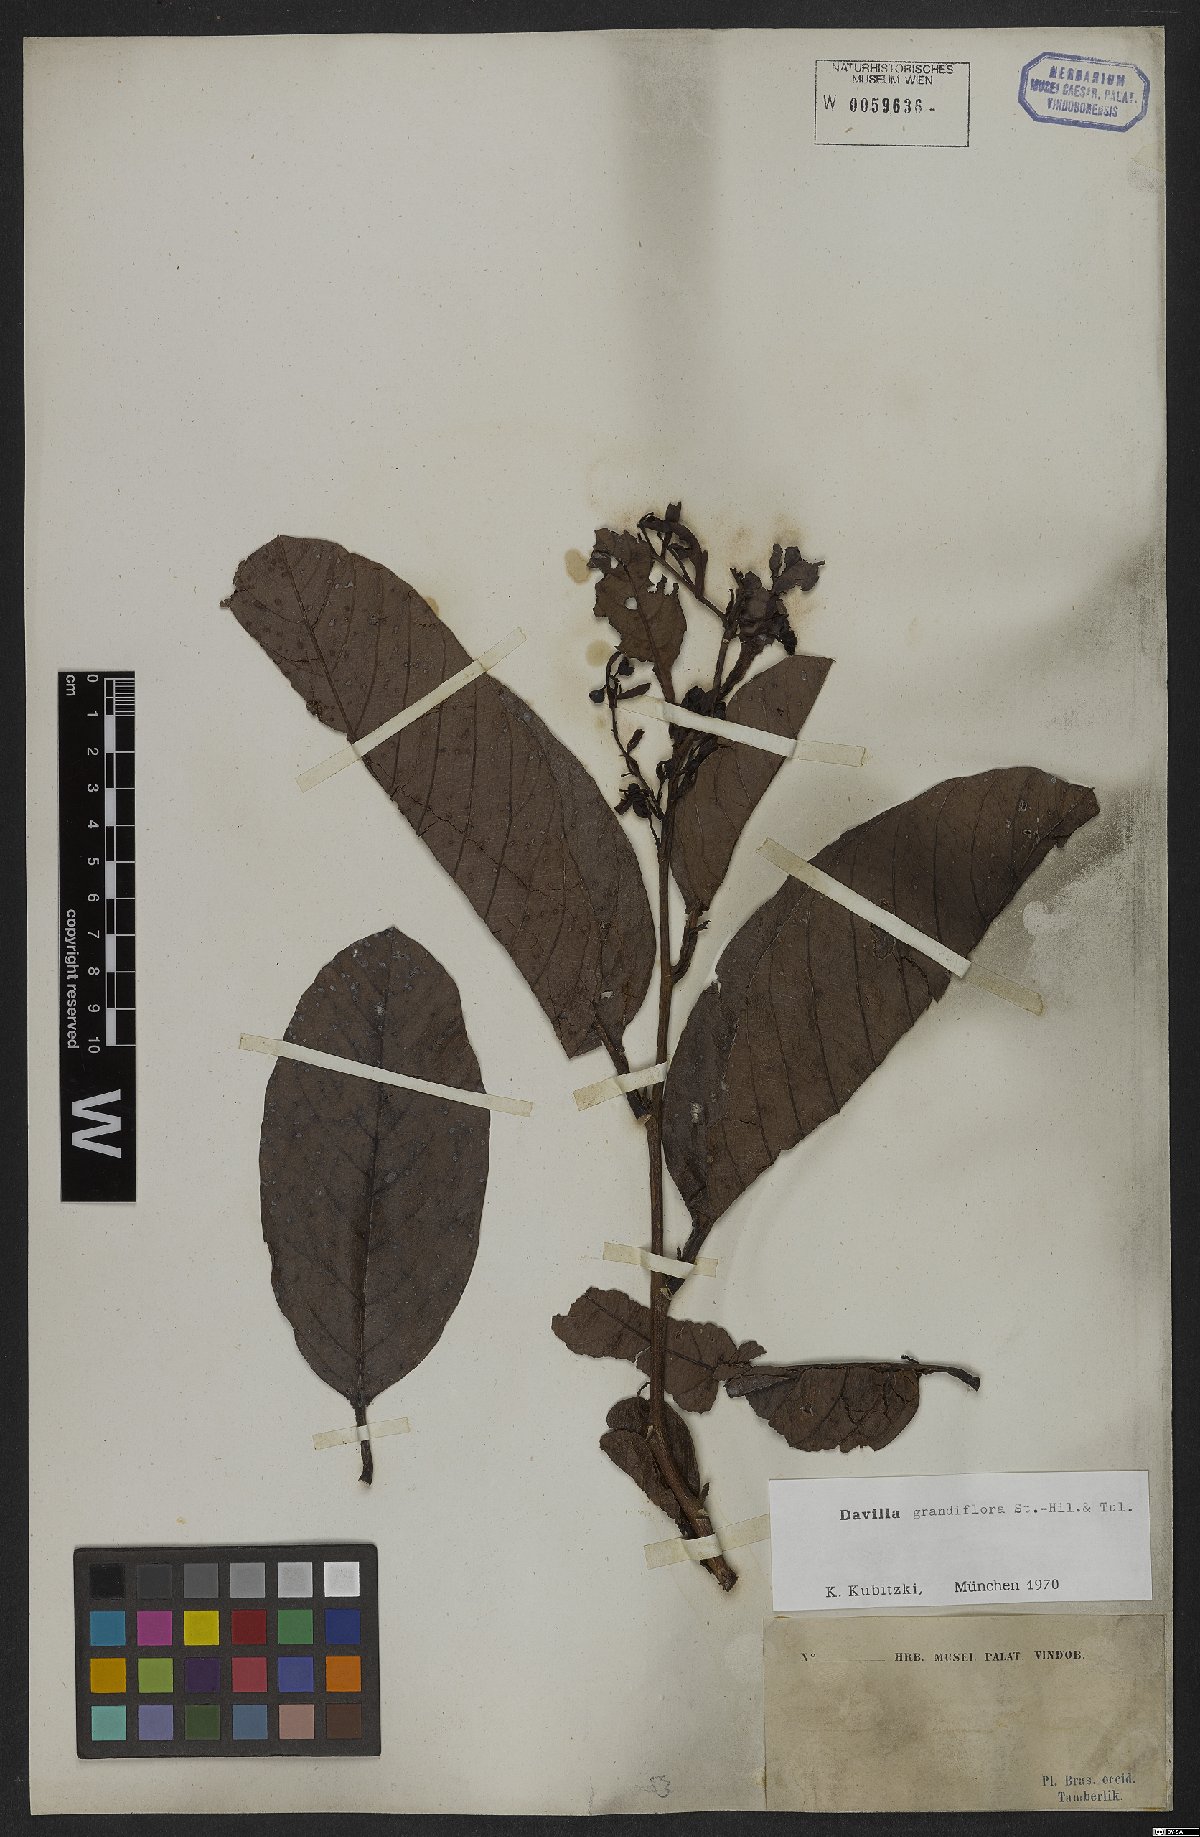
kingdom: Plantae
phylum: Tracheophyta
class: Magnoliopsida
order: Dilleniales
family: Dilleniaceae
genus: Davilla
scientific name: Davilla grandiflora
